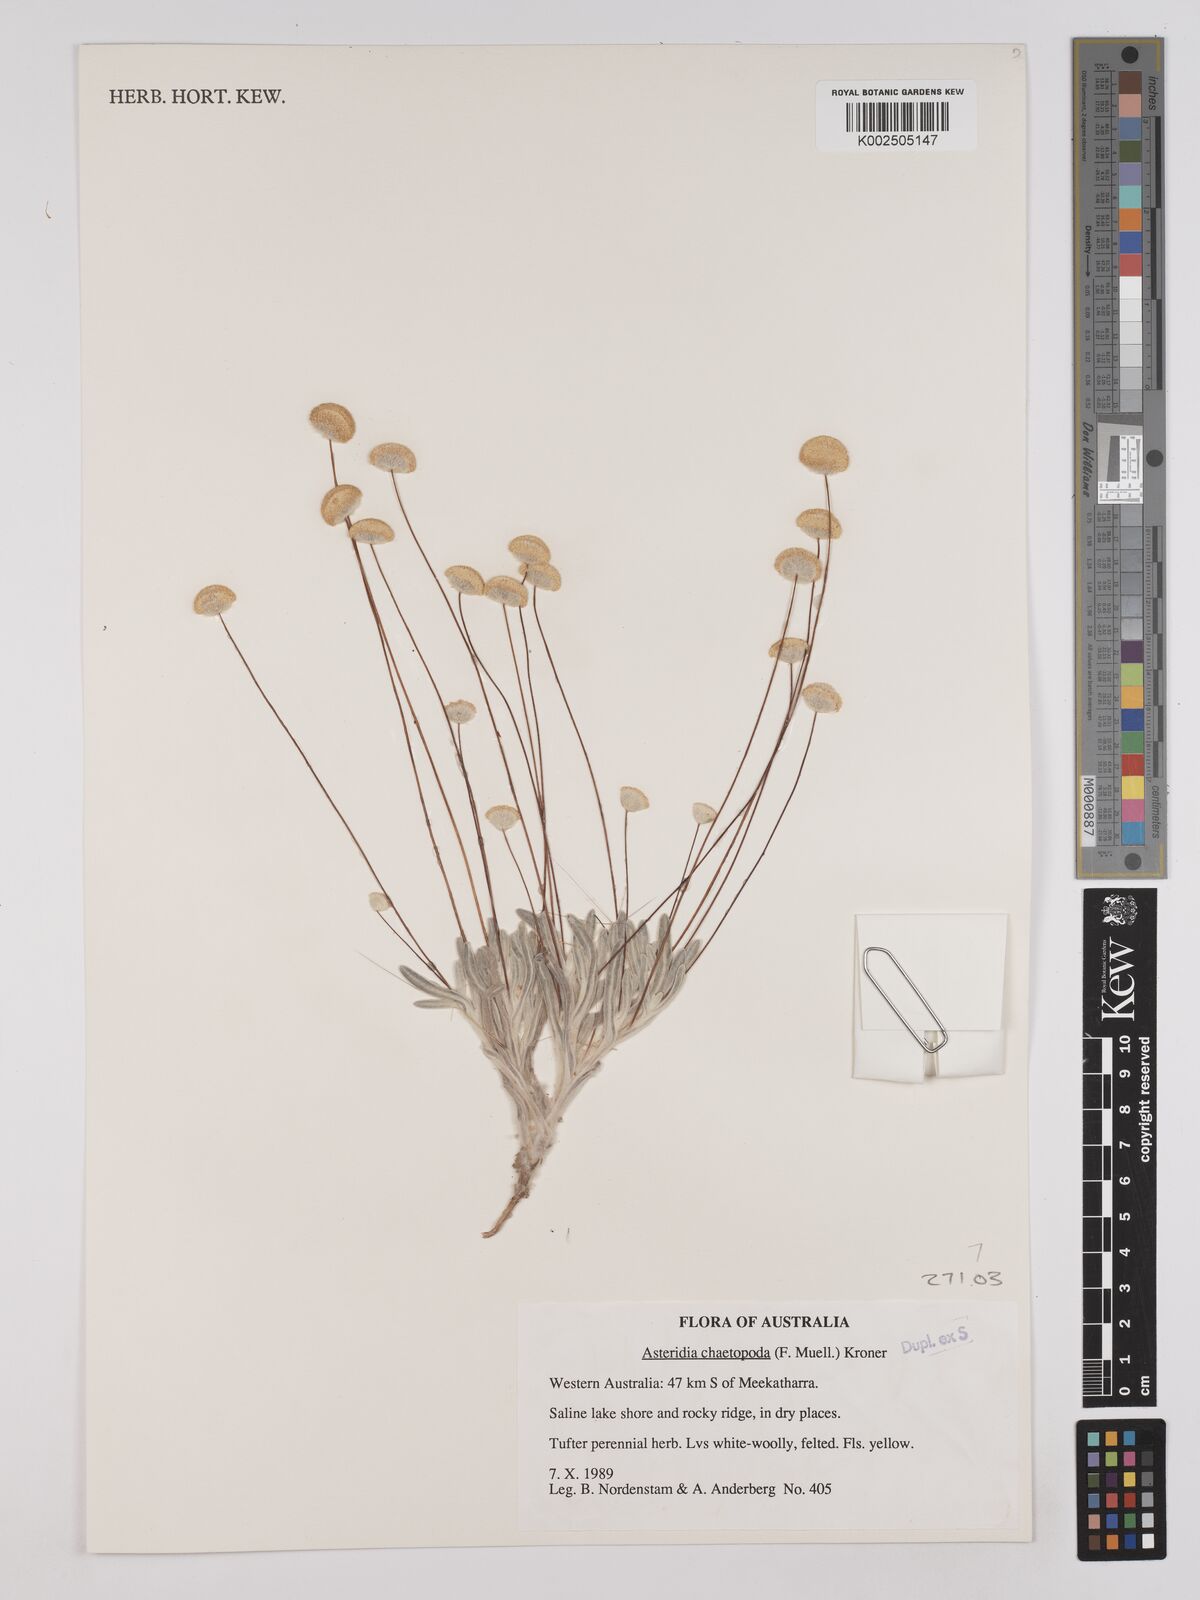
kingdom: Plantae
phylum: Tracheophyta
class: Magnoliopsida
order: Asterales
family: Asteraceae
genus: Asteridea
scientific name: Asteridea chaetopoda
